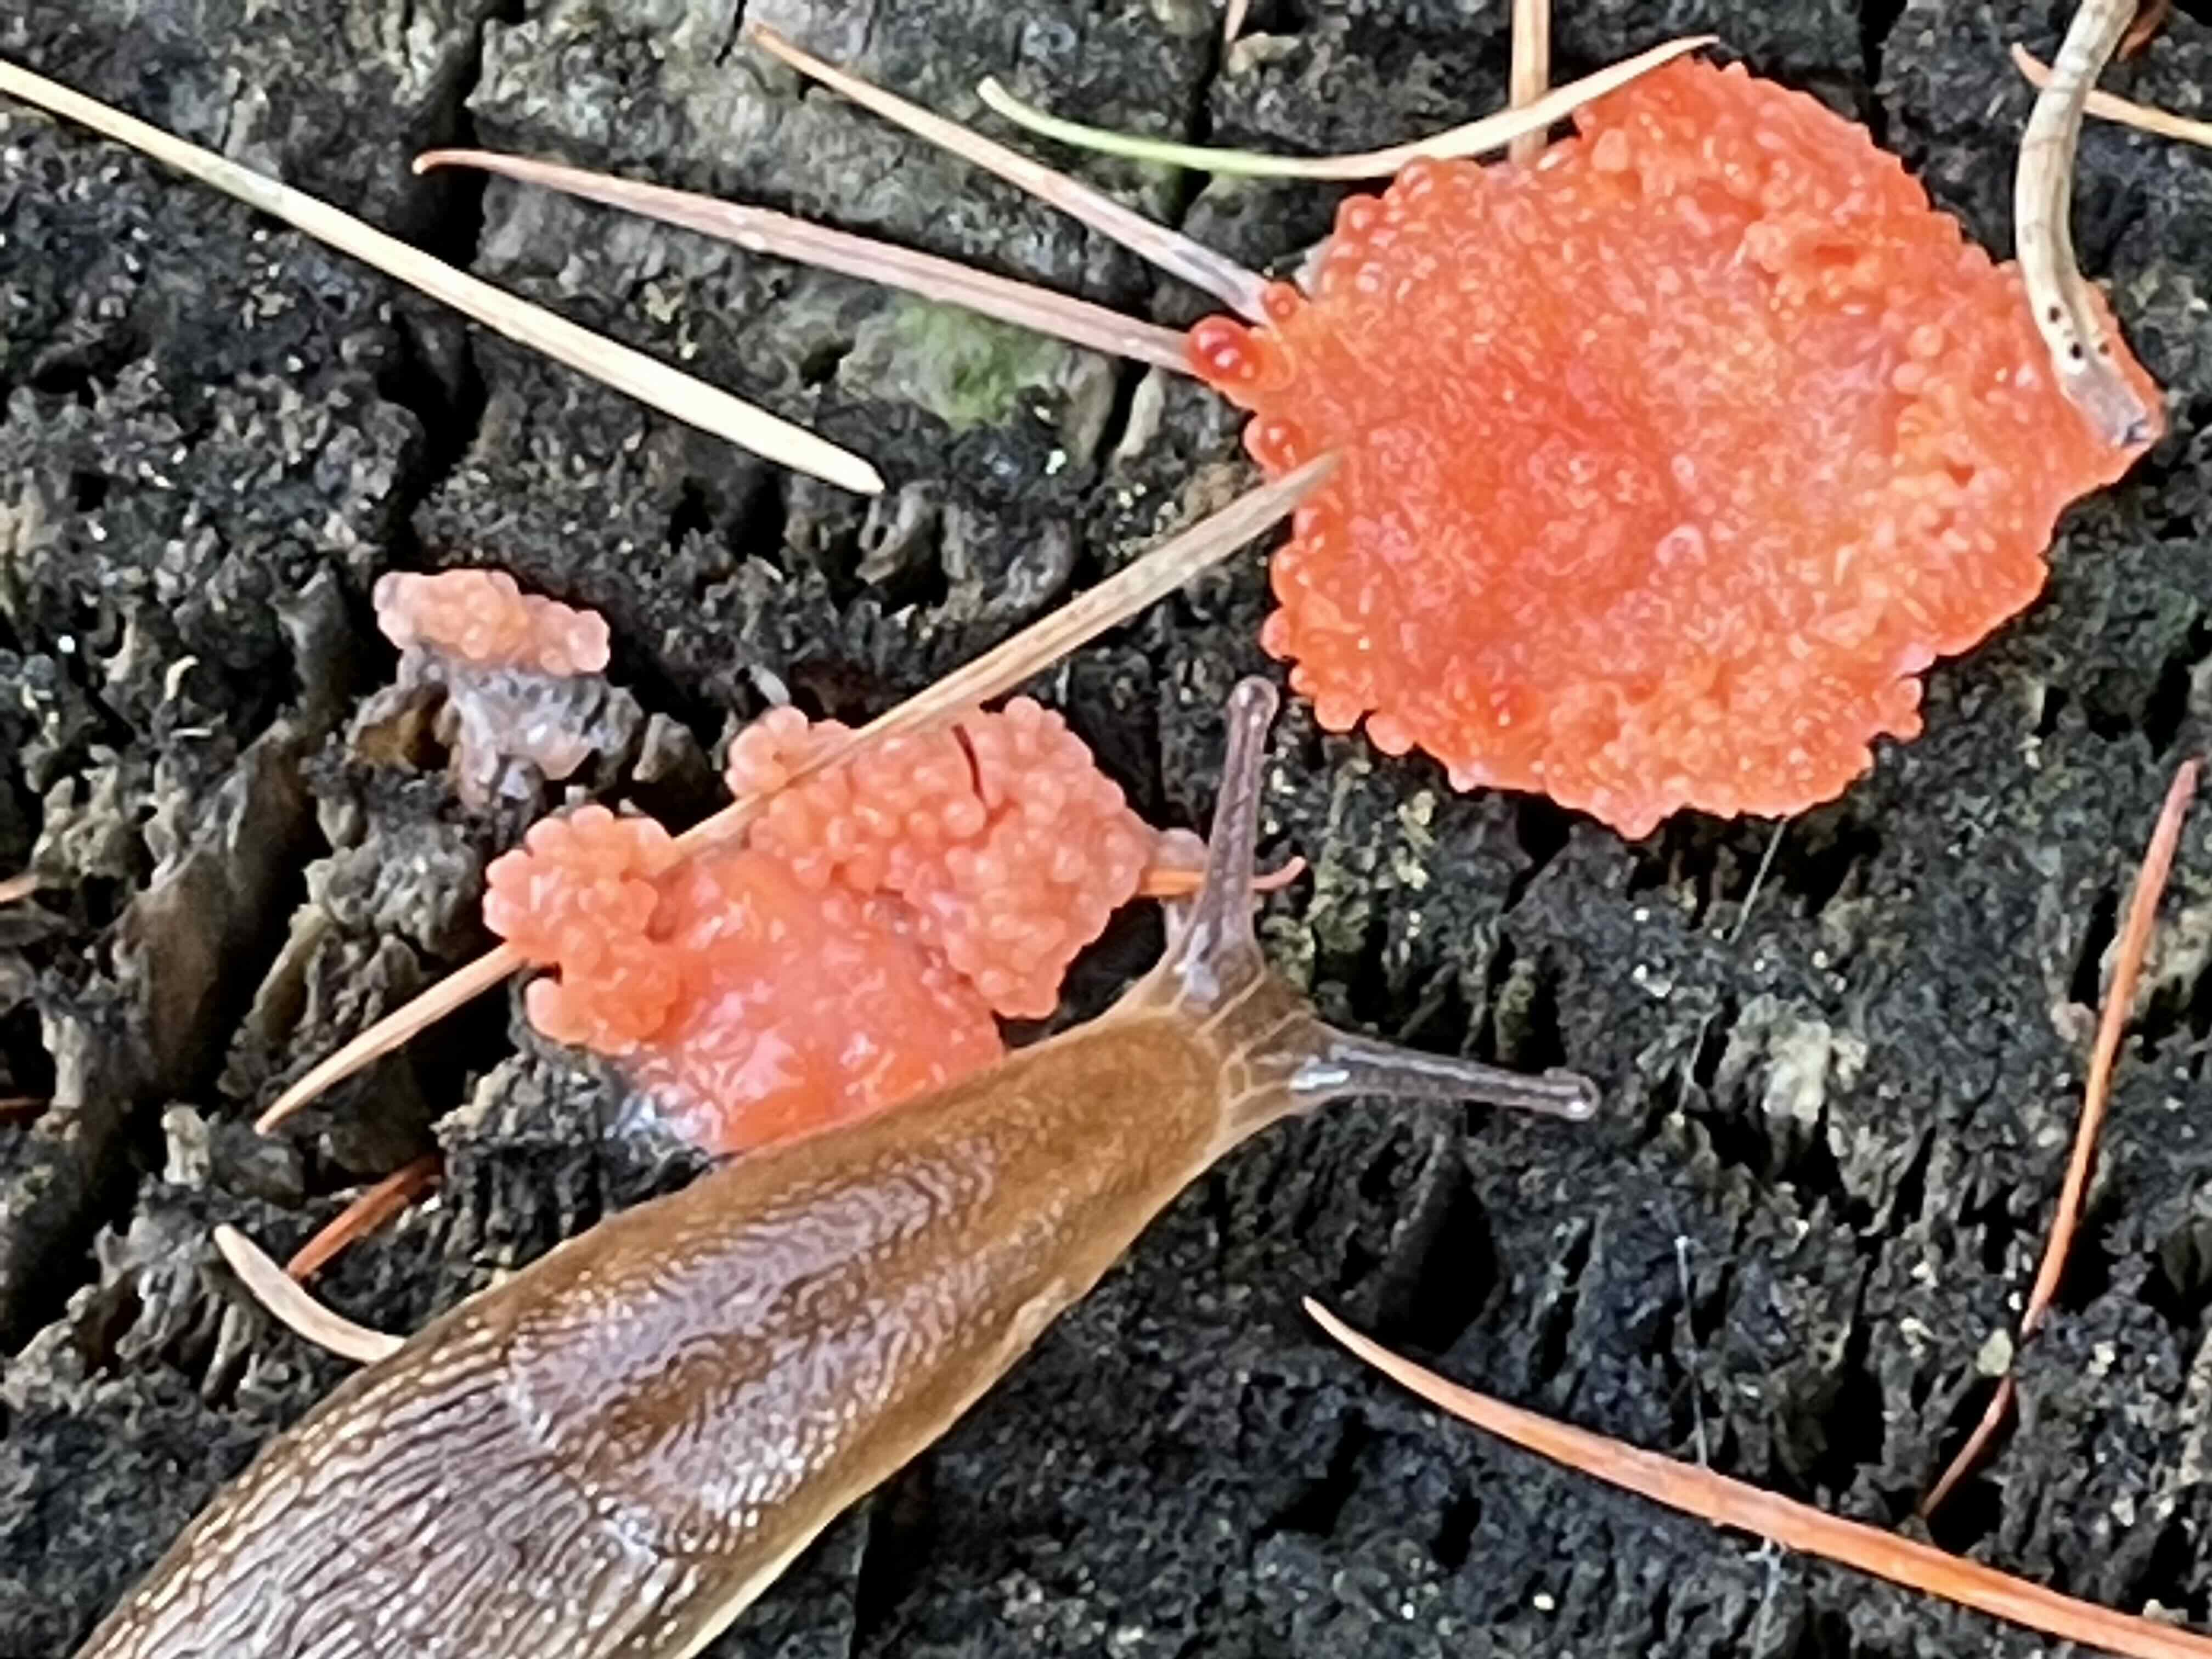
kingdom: Protozoa
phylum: Mycetozoa
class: Myxomycetes
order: Cribrariales
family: Tubiferaceae
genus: Tubifera
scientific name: Tubifera ferruginosa
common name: kanel-støvrør
